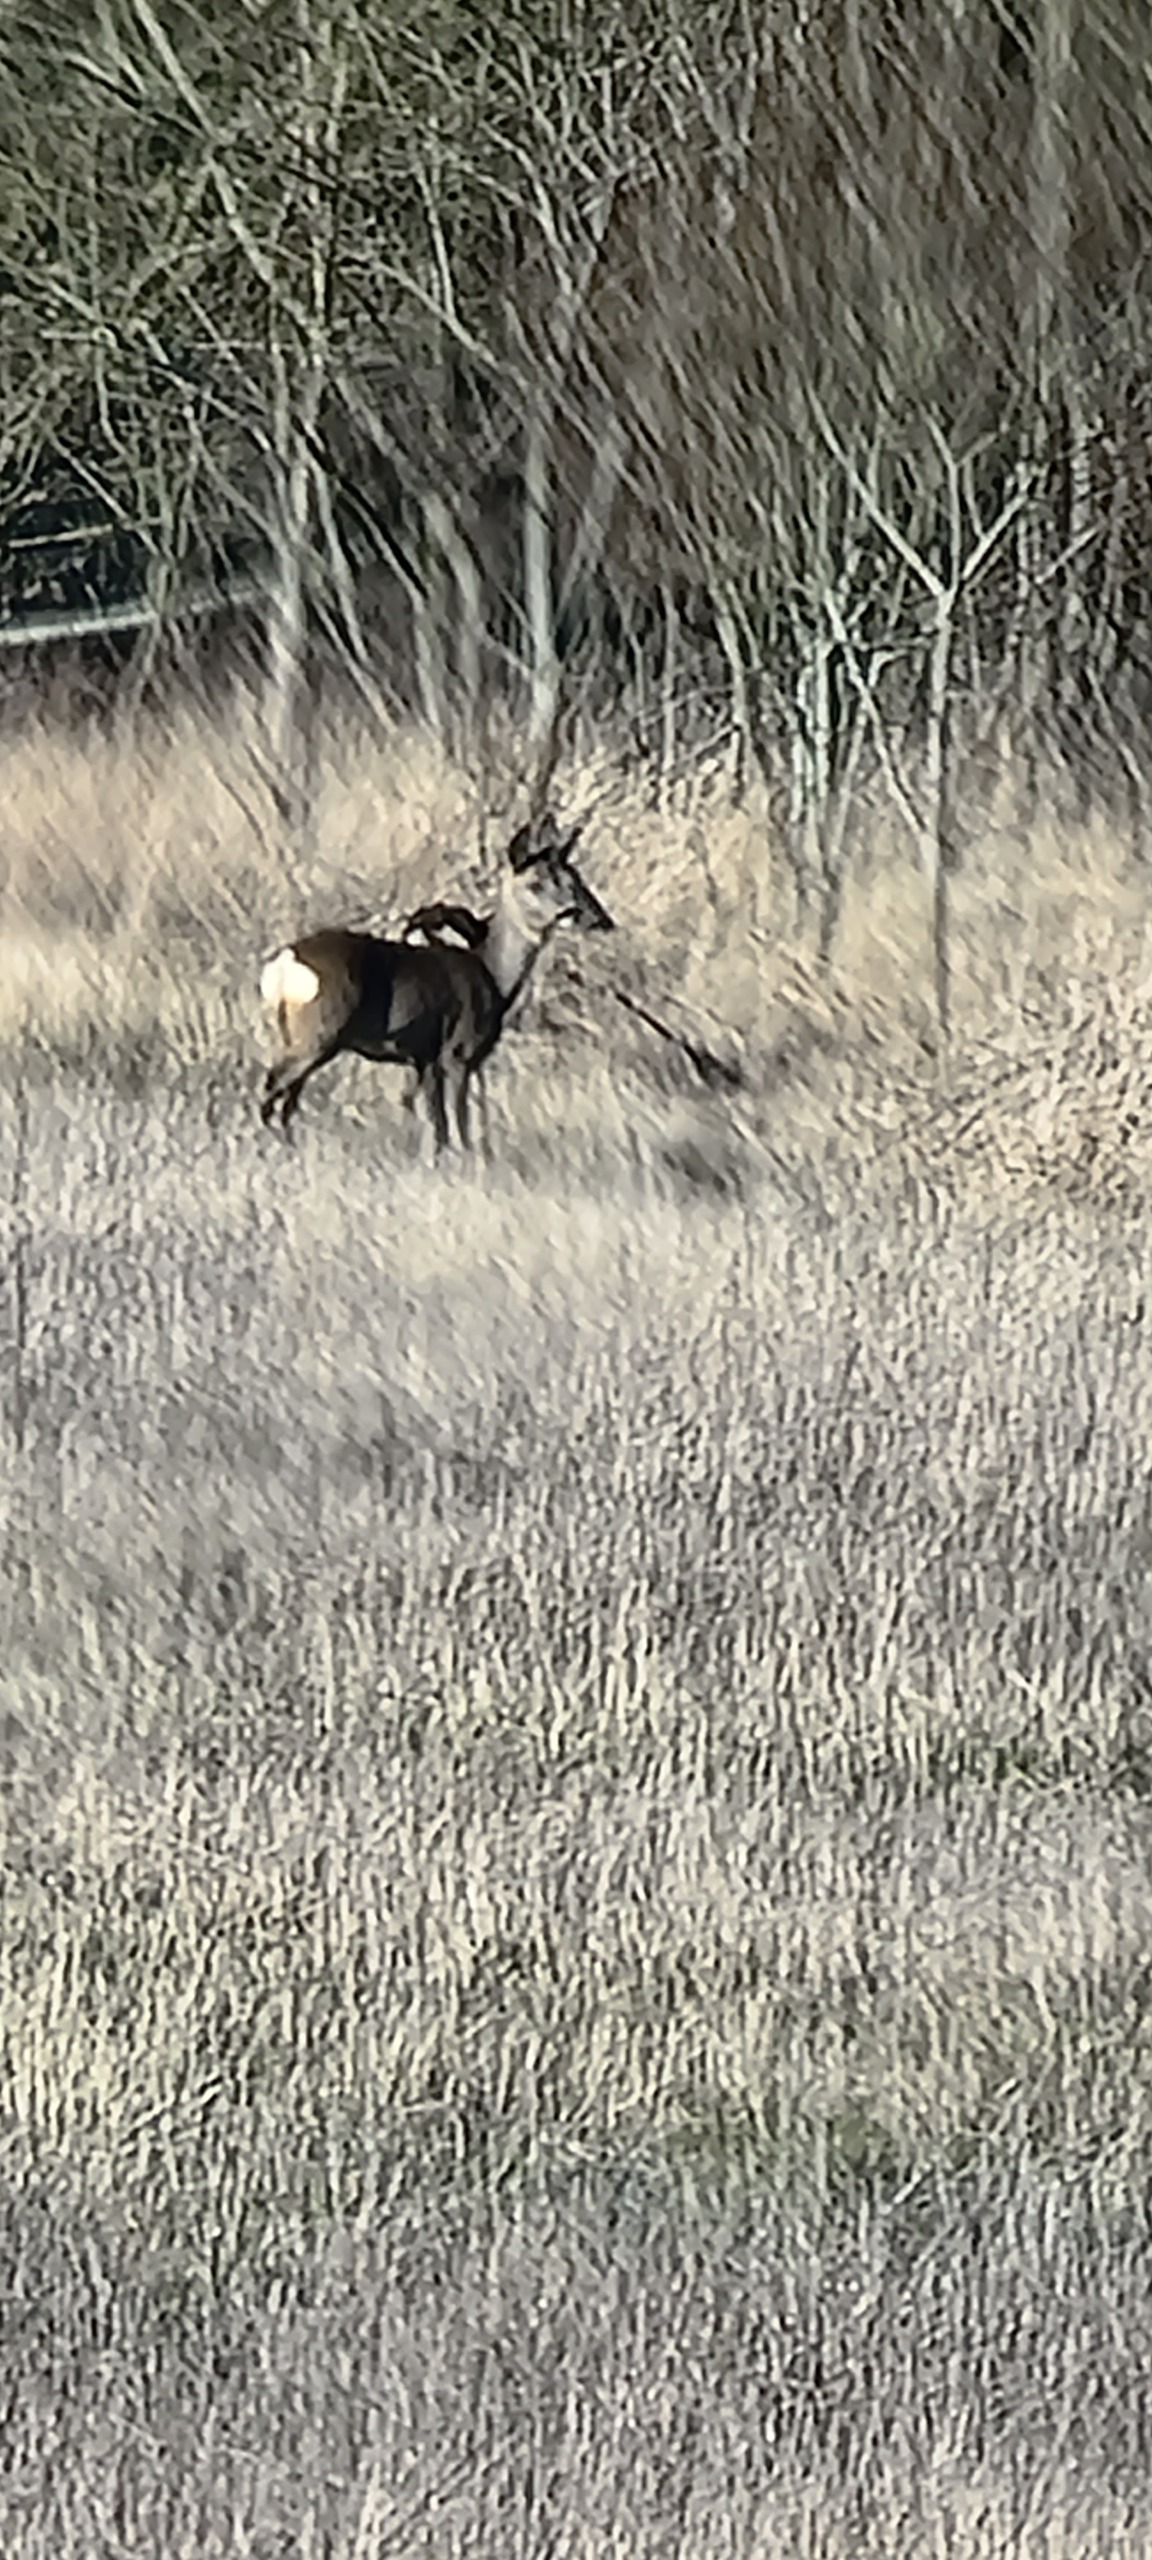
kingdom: Animalia
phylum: Chordata
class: Mammalia
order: Artiodactyla
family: Cervidae
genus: Capreolus
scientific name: Capreolus capreolus
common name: Rådyr
